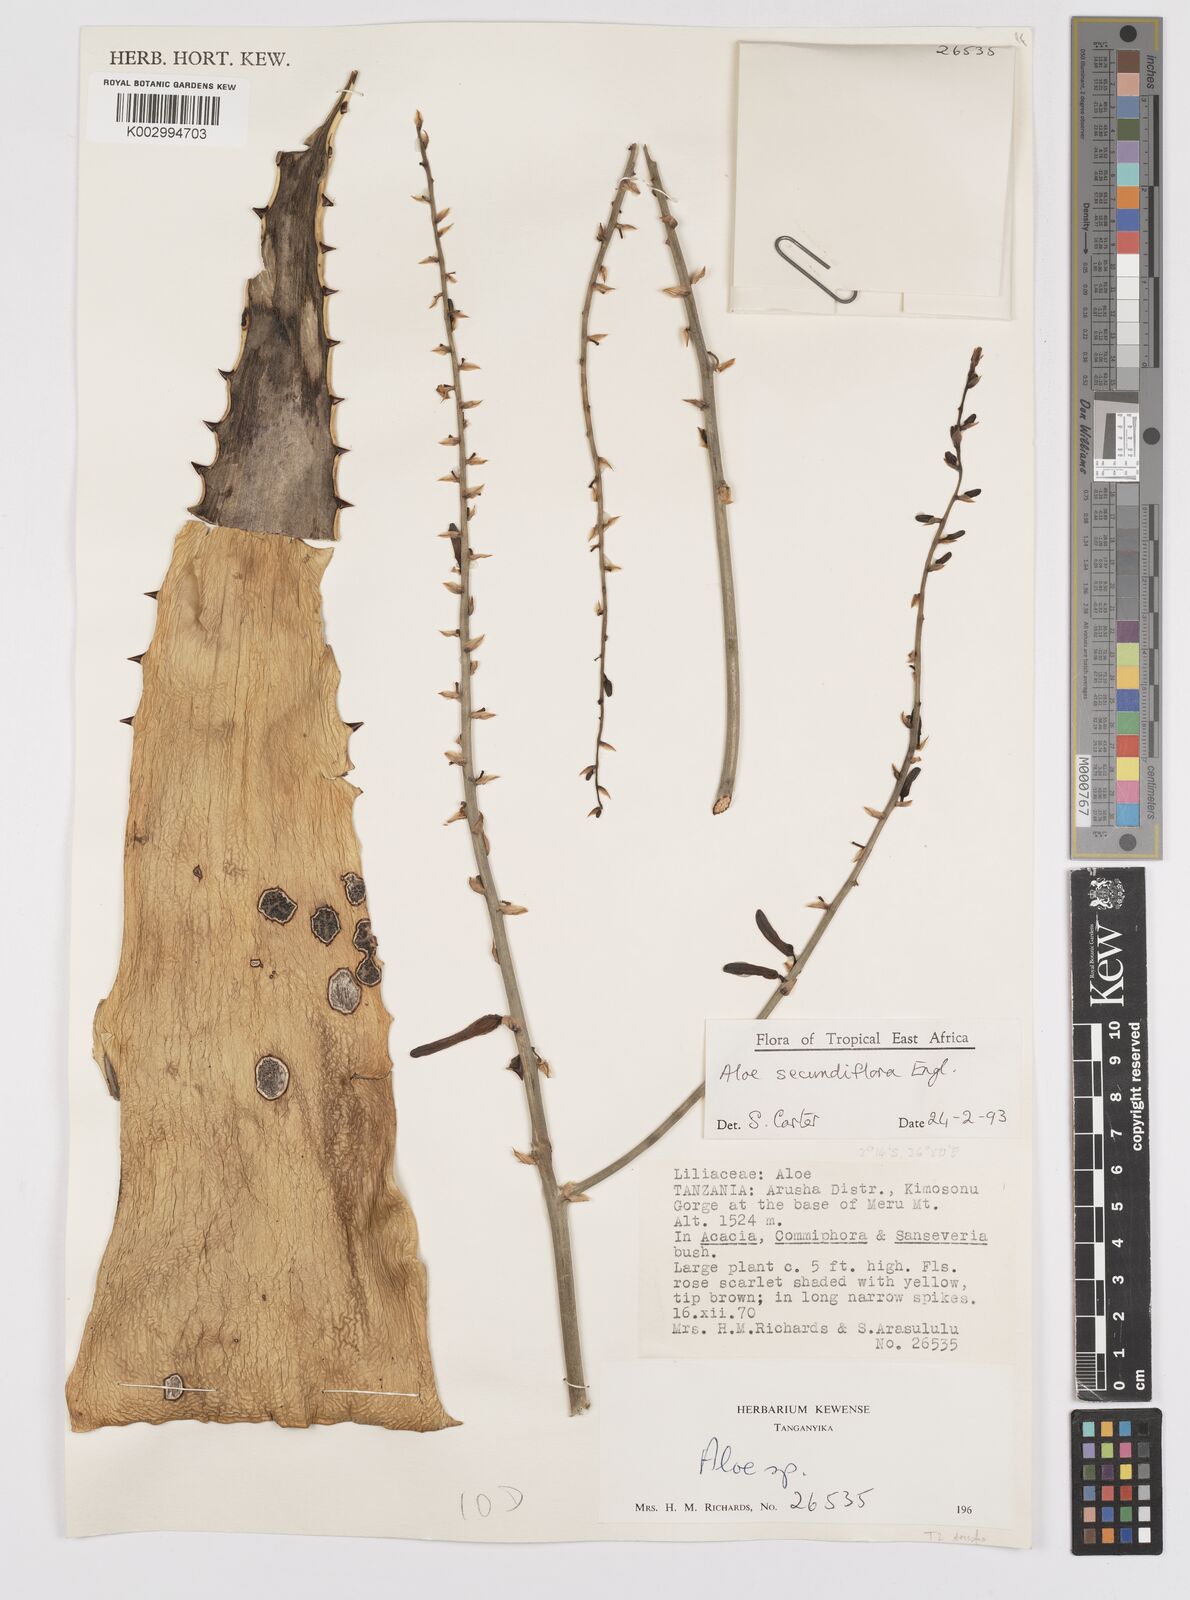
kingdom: Plantae
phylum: Tracheophyta
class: Liliopsida
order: Asparagales
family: Asphodelaceae
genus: Aloe
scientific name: Aloe secundiflora
